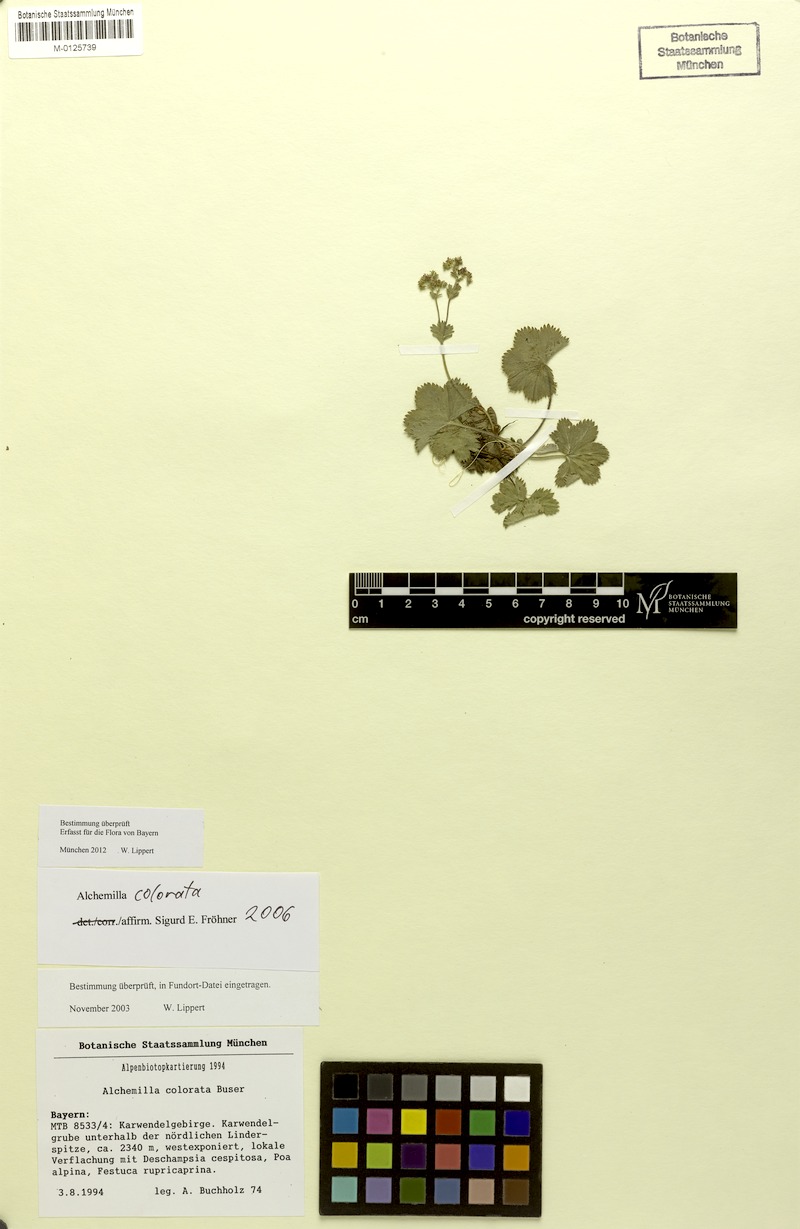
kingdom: Plantae
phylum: Tracheophyta
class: Magnoliopsida
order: Rosales
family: Rosaceae
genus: Alchemilla
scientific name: Alchemilla colorata
